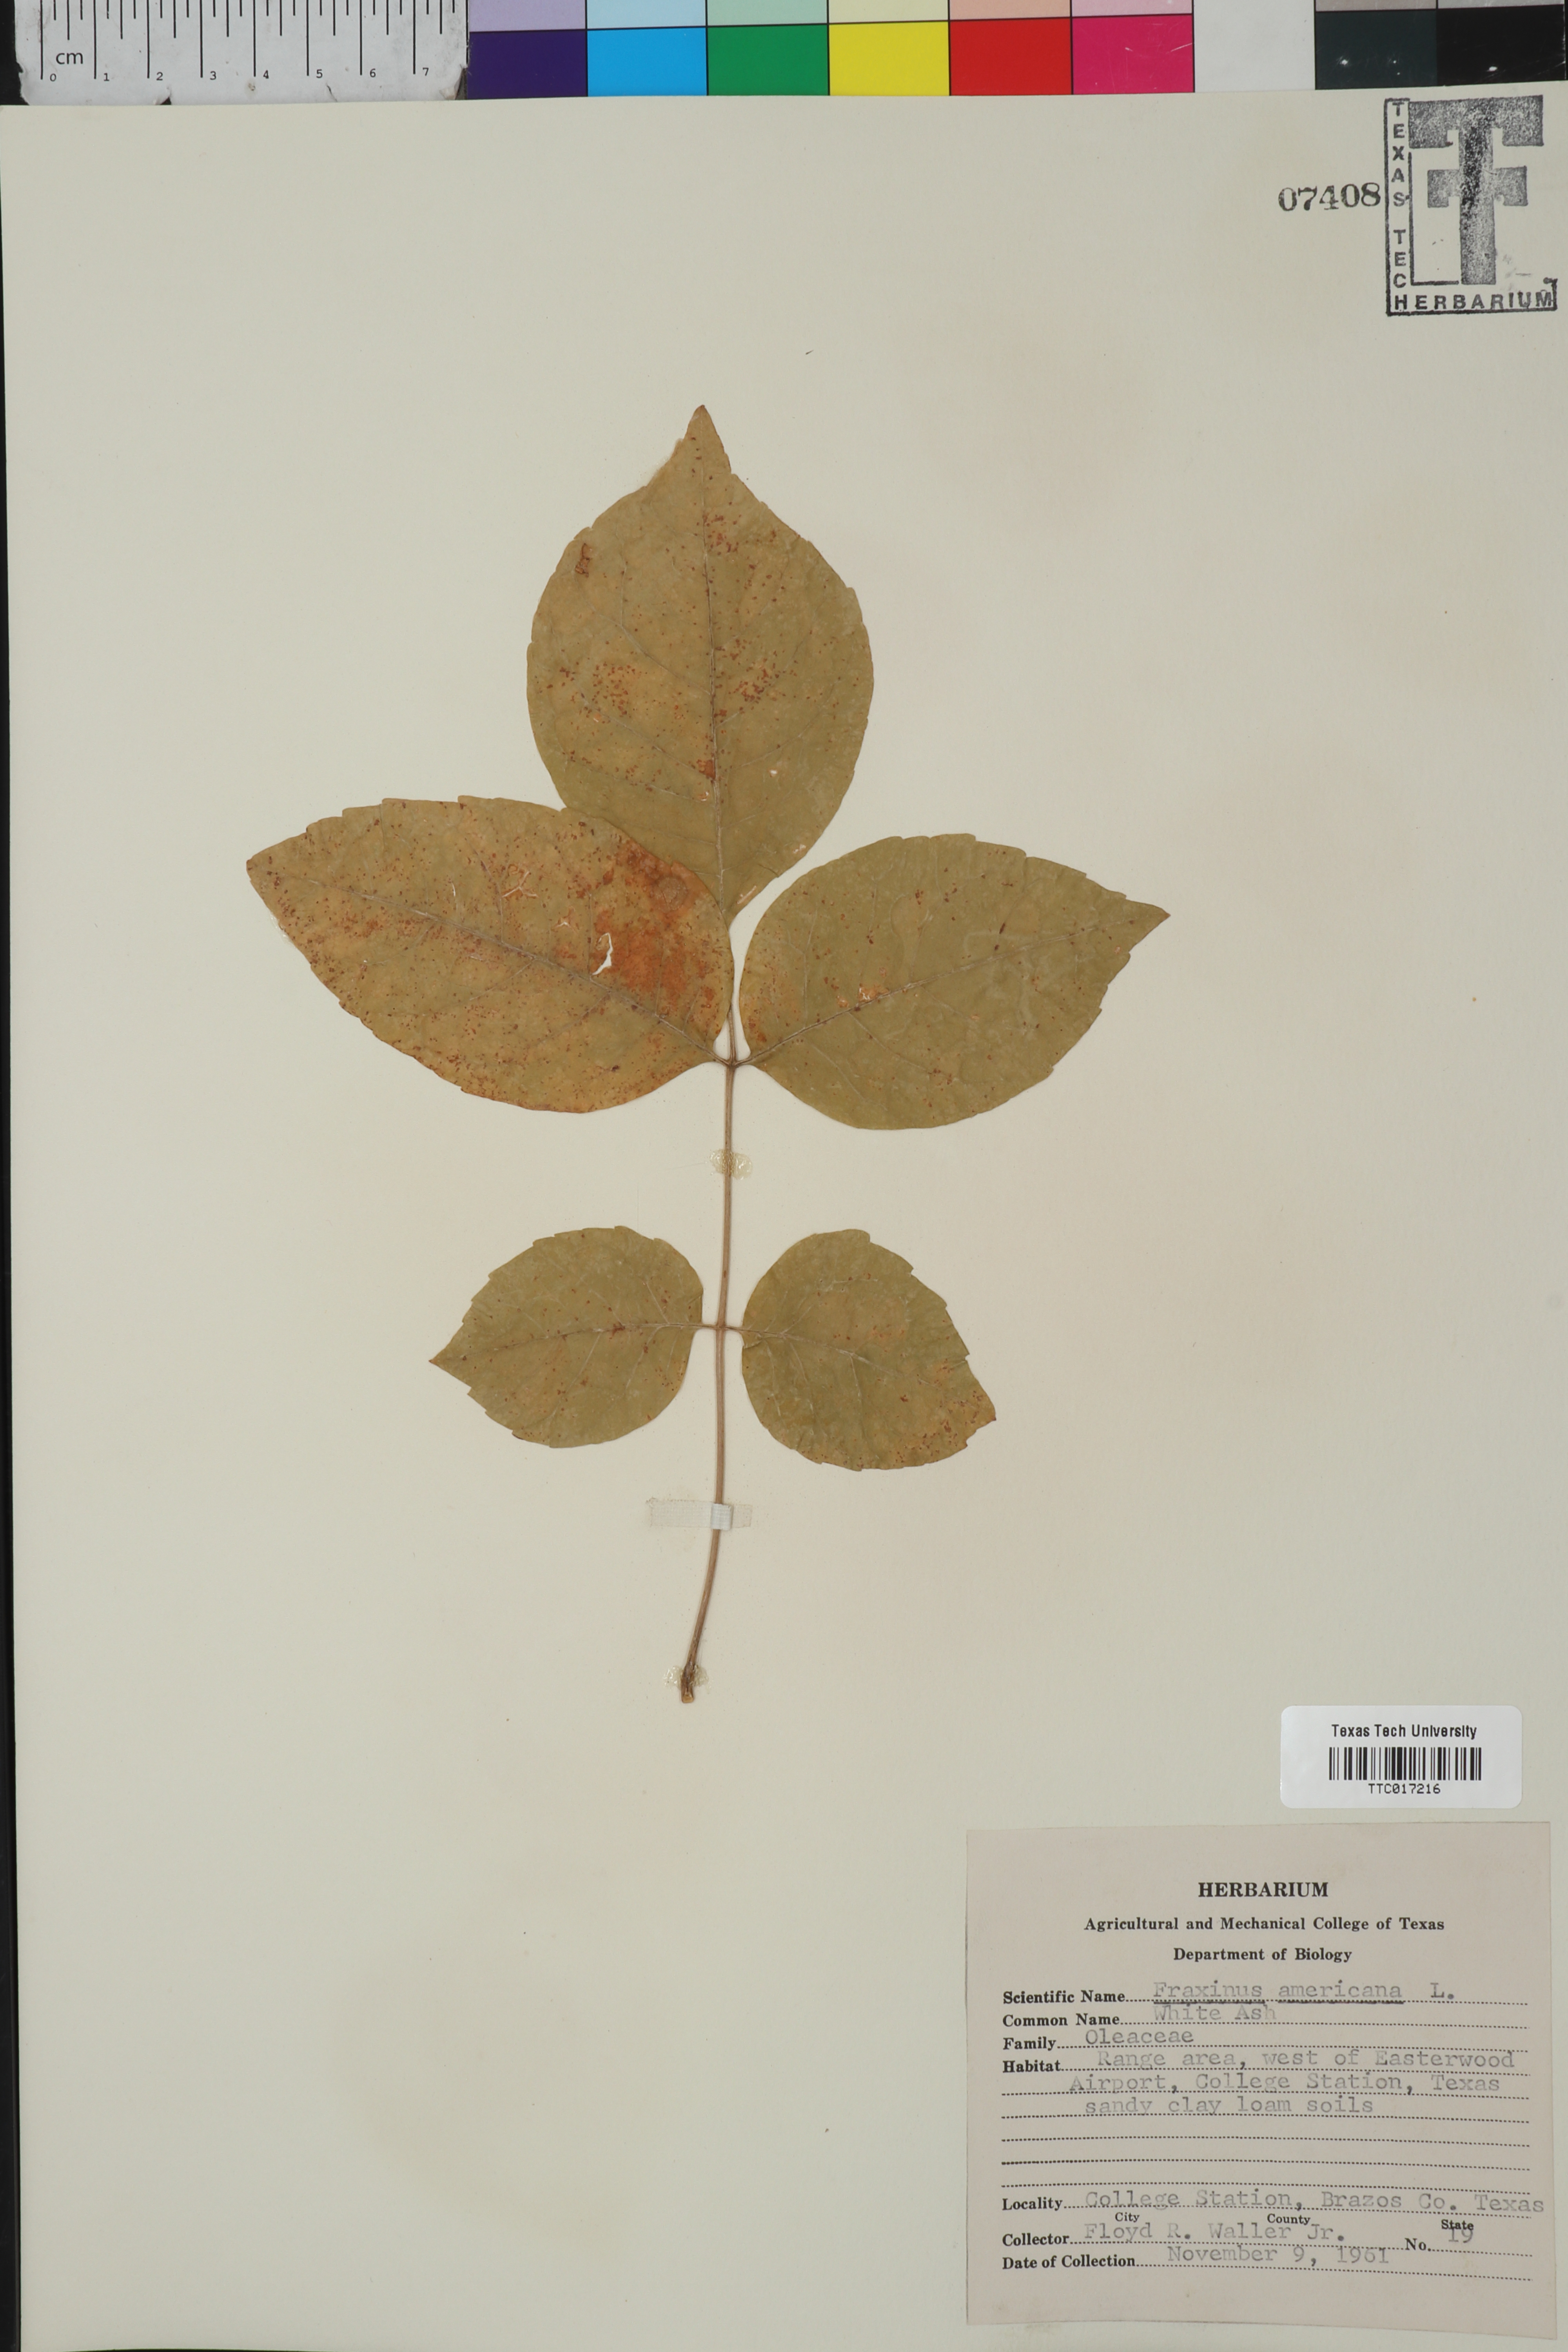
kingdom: Plantae
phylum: Tracheophyta
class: Magnoliopsida
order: Lamiales
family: Oleaceae
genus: Fraxinus
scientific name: Fraxinus americana
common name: White ash
